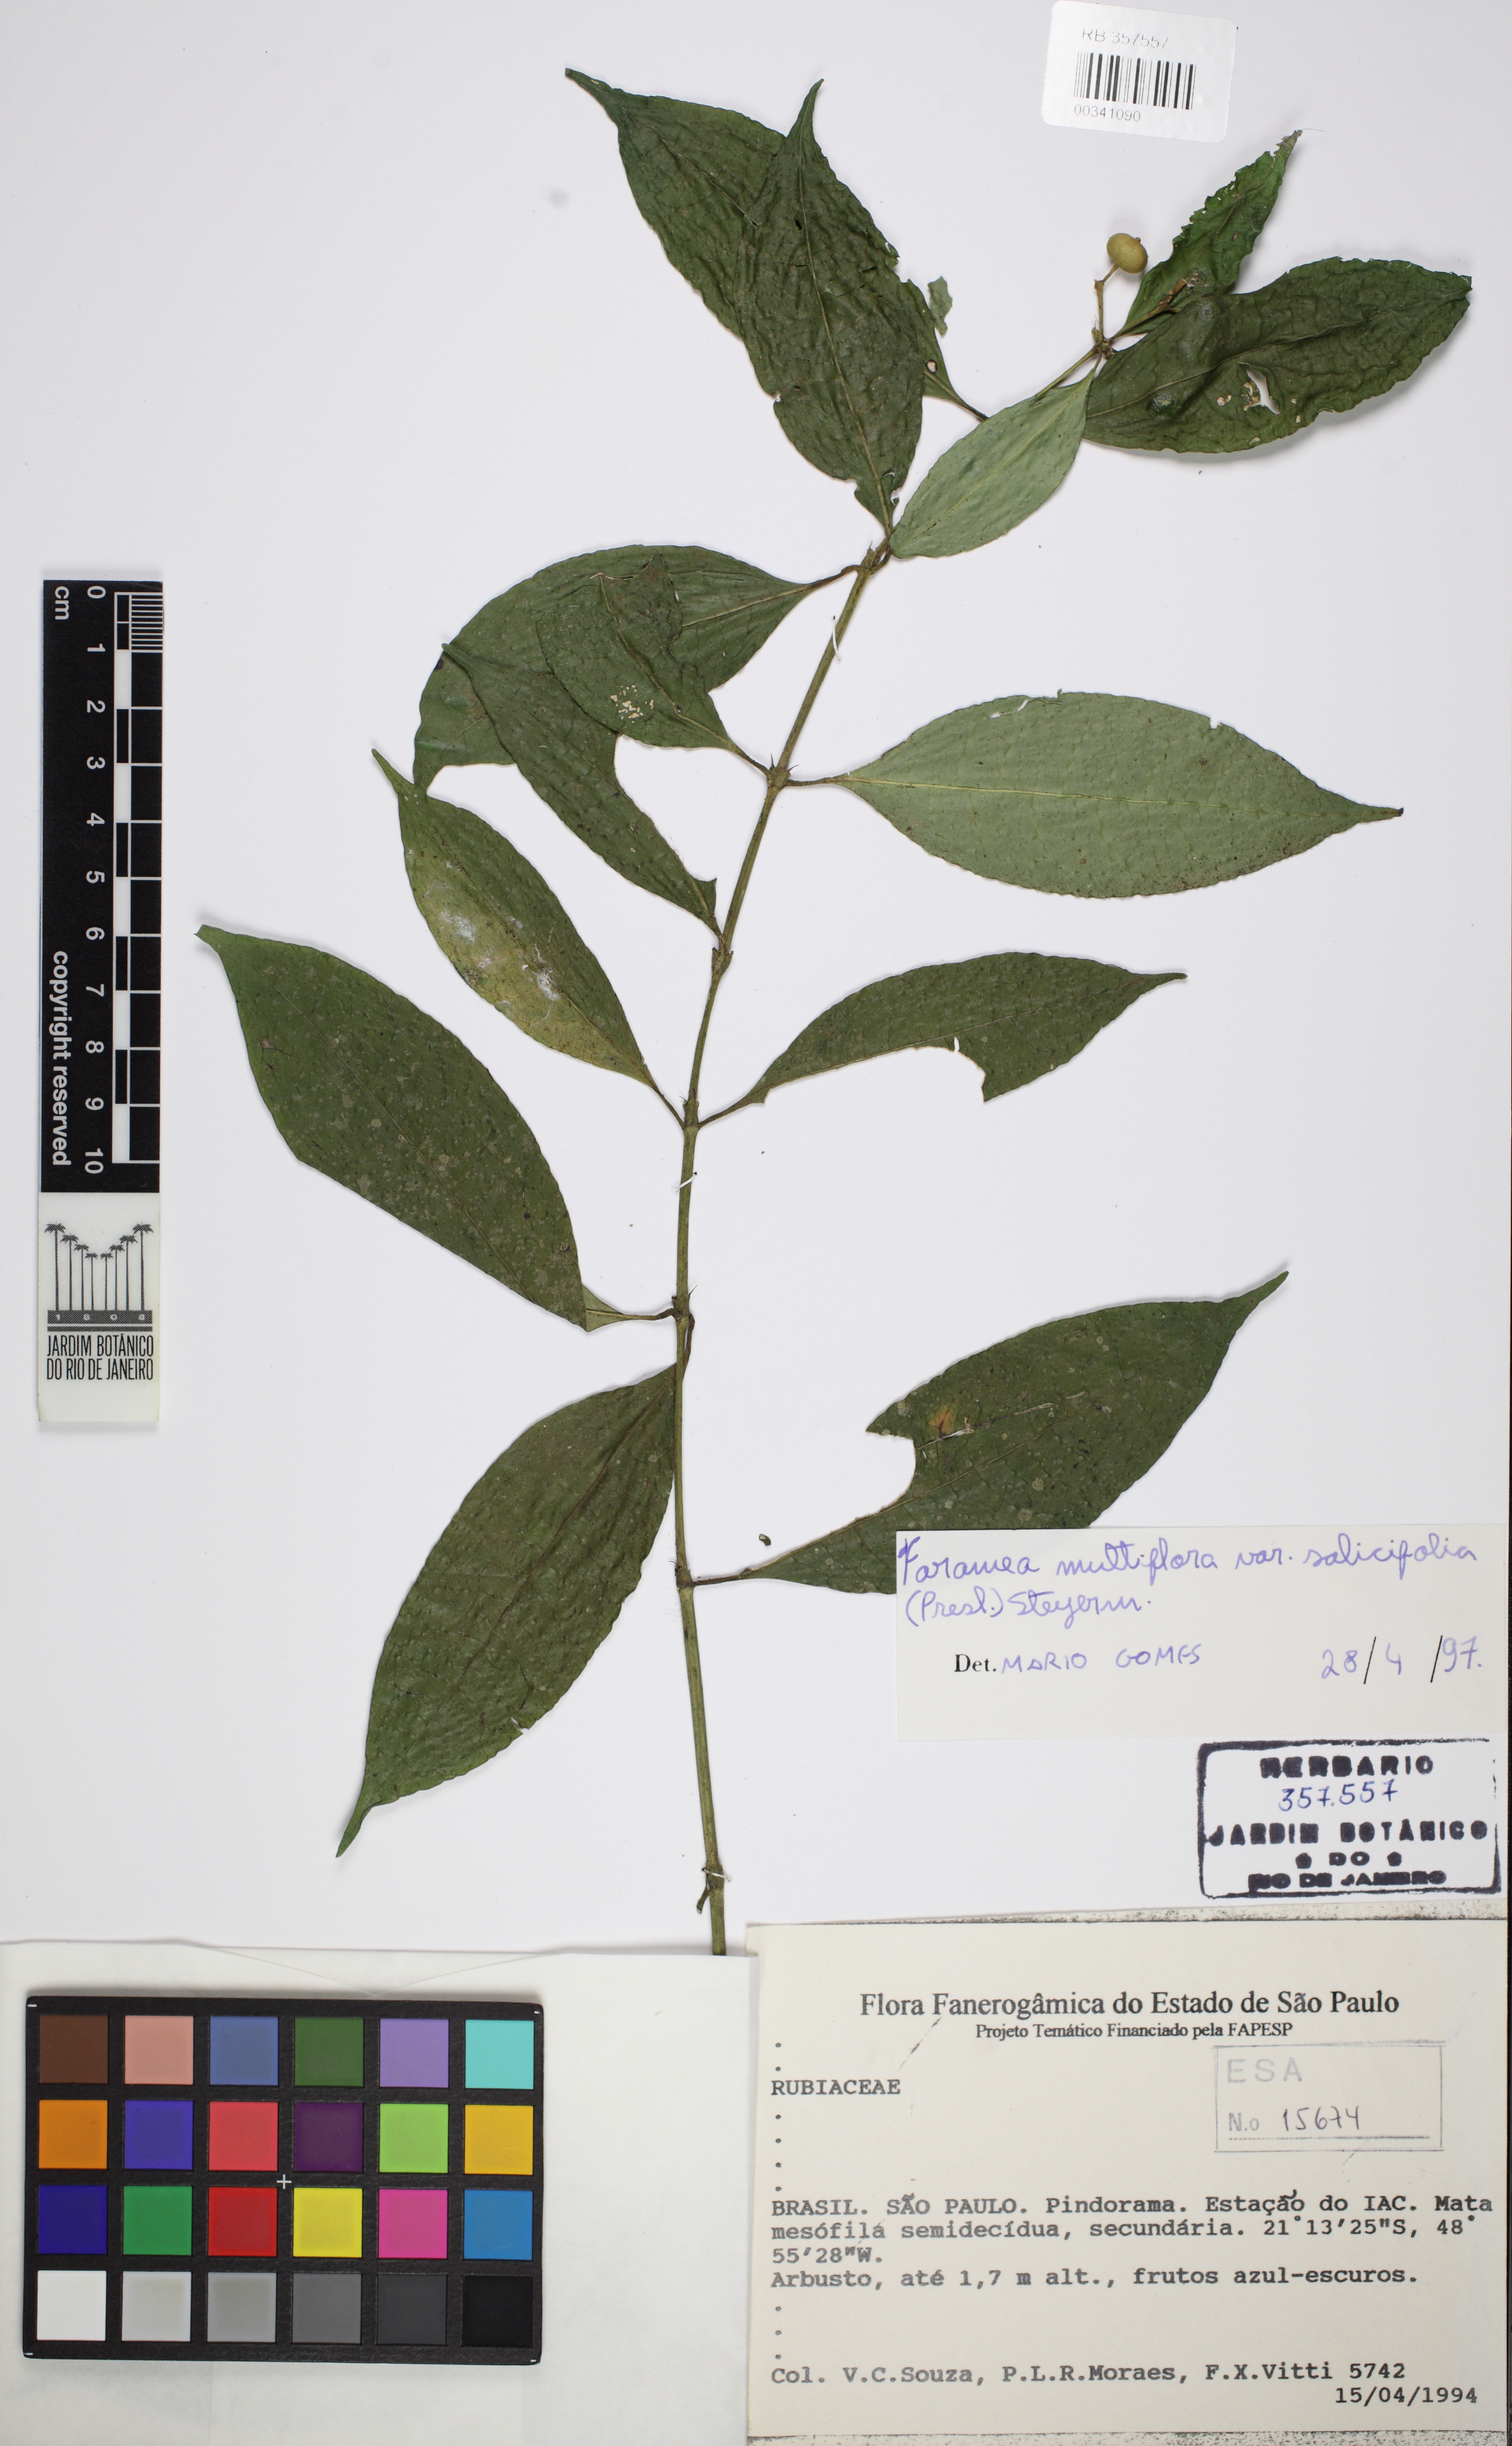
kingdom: Plantae
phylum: Tracheophyta
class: Magnoliopsida
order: Gentianales
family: Rubiaceae
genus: Faramea
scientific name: Faramea multiflora
